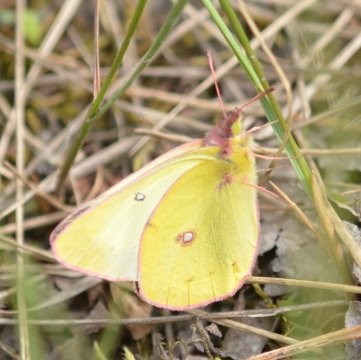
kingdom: Animalia
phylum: Arthropoda
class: Insecta
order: Lepidoptera
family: Pieridae
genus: Colias
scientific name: Colias philodice
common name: Clouded Sulphur
